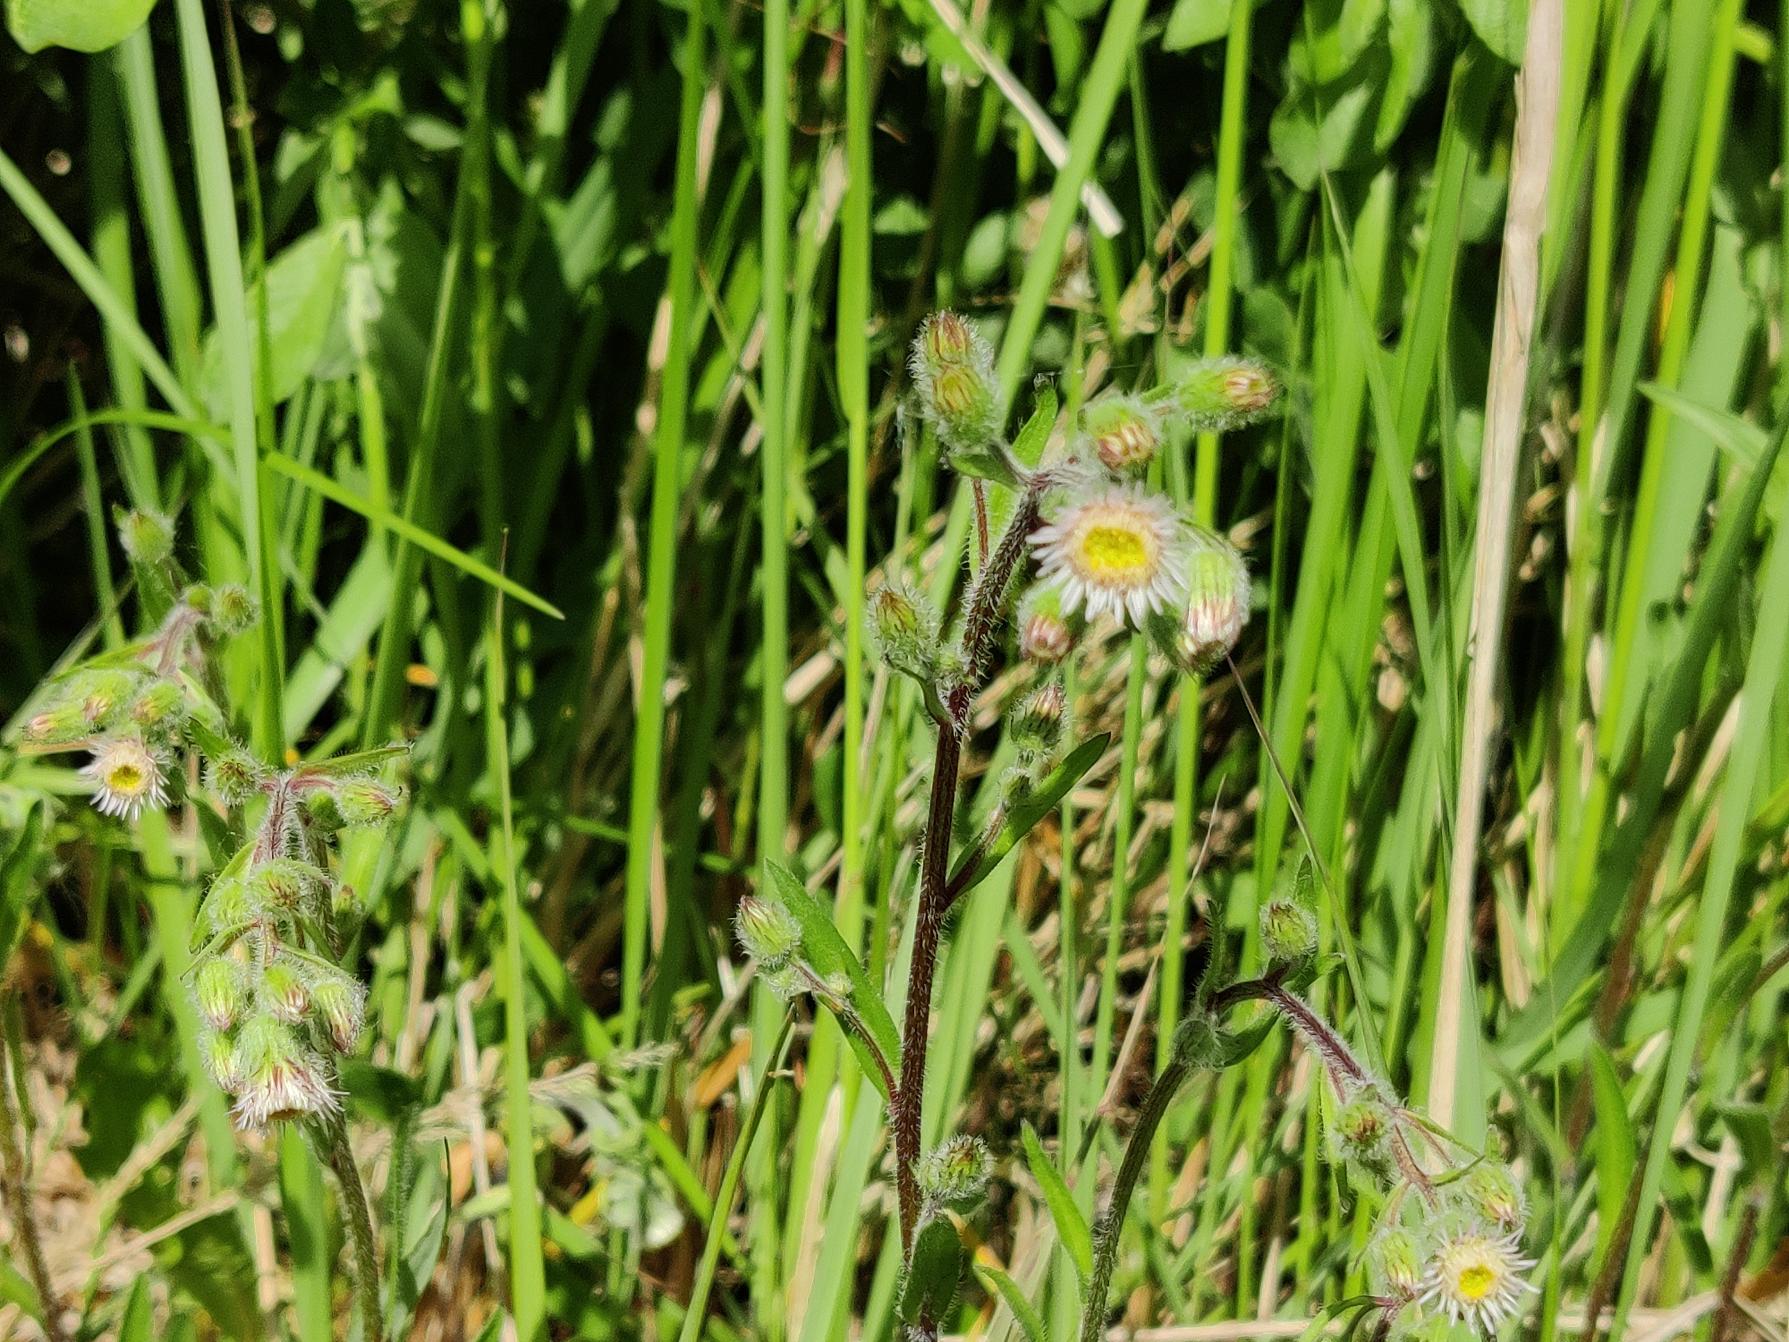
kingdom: Plantae
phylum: Tracheophyta
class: Magnoliopsida
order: Asterales
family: Asteraceae
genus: Erigeron
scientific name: Erigeron acris
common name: Bitter bakkestjerne
